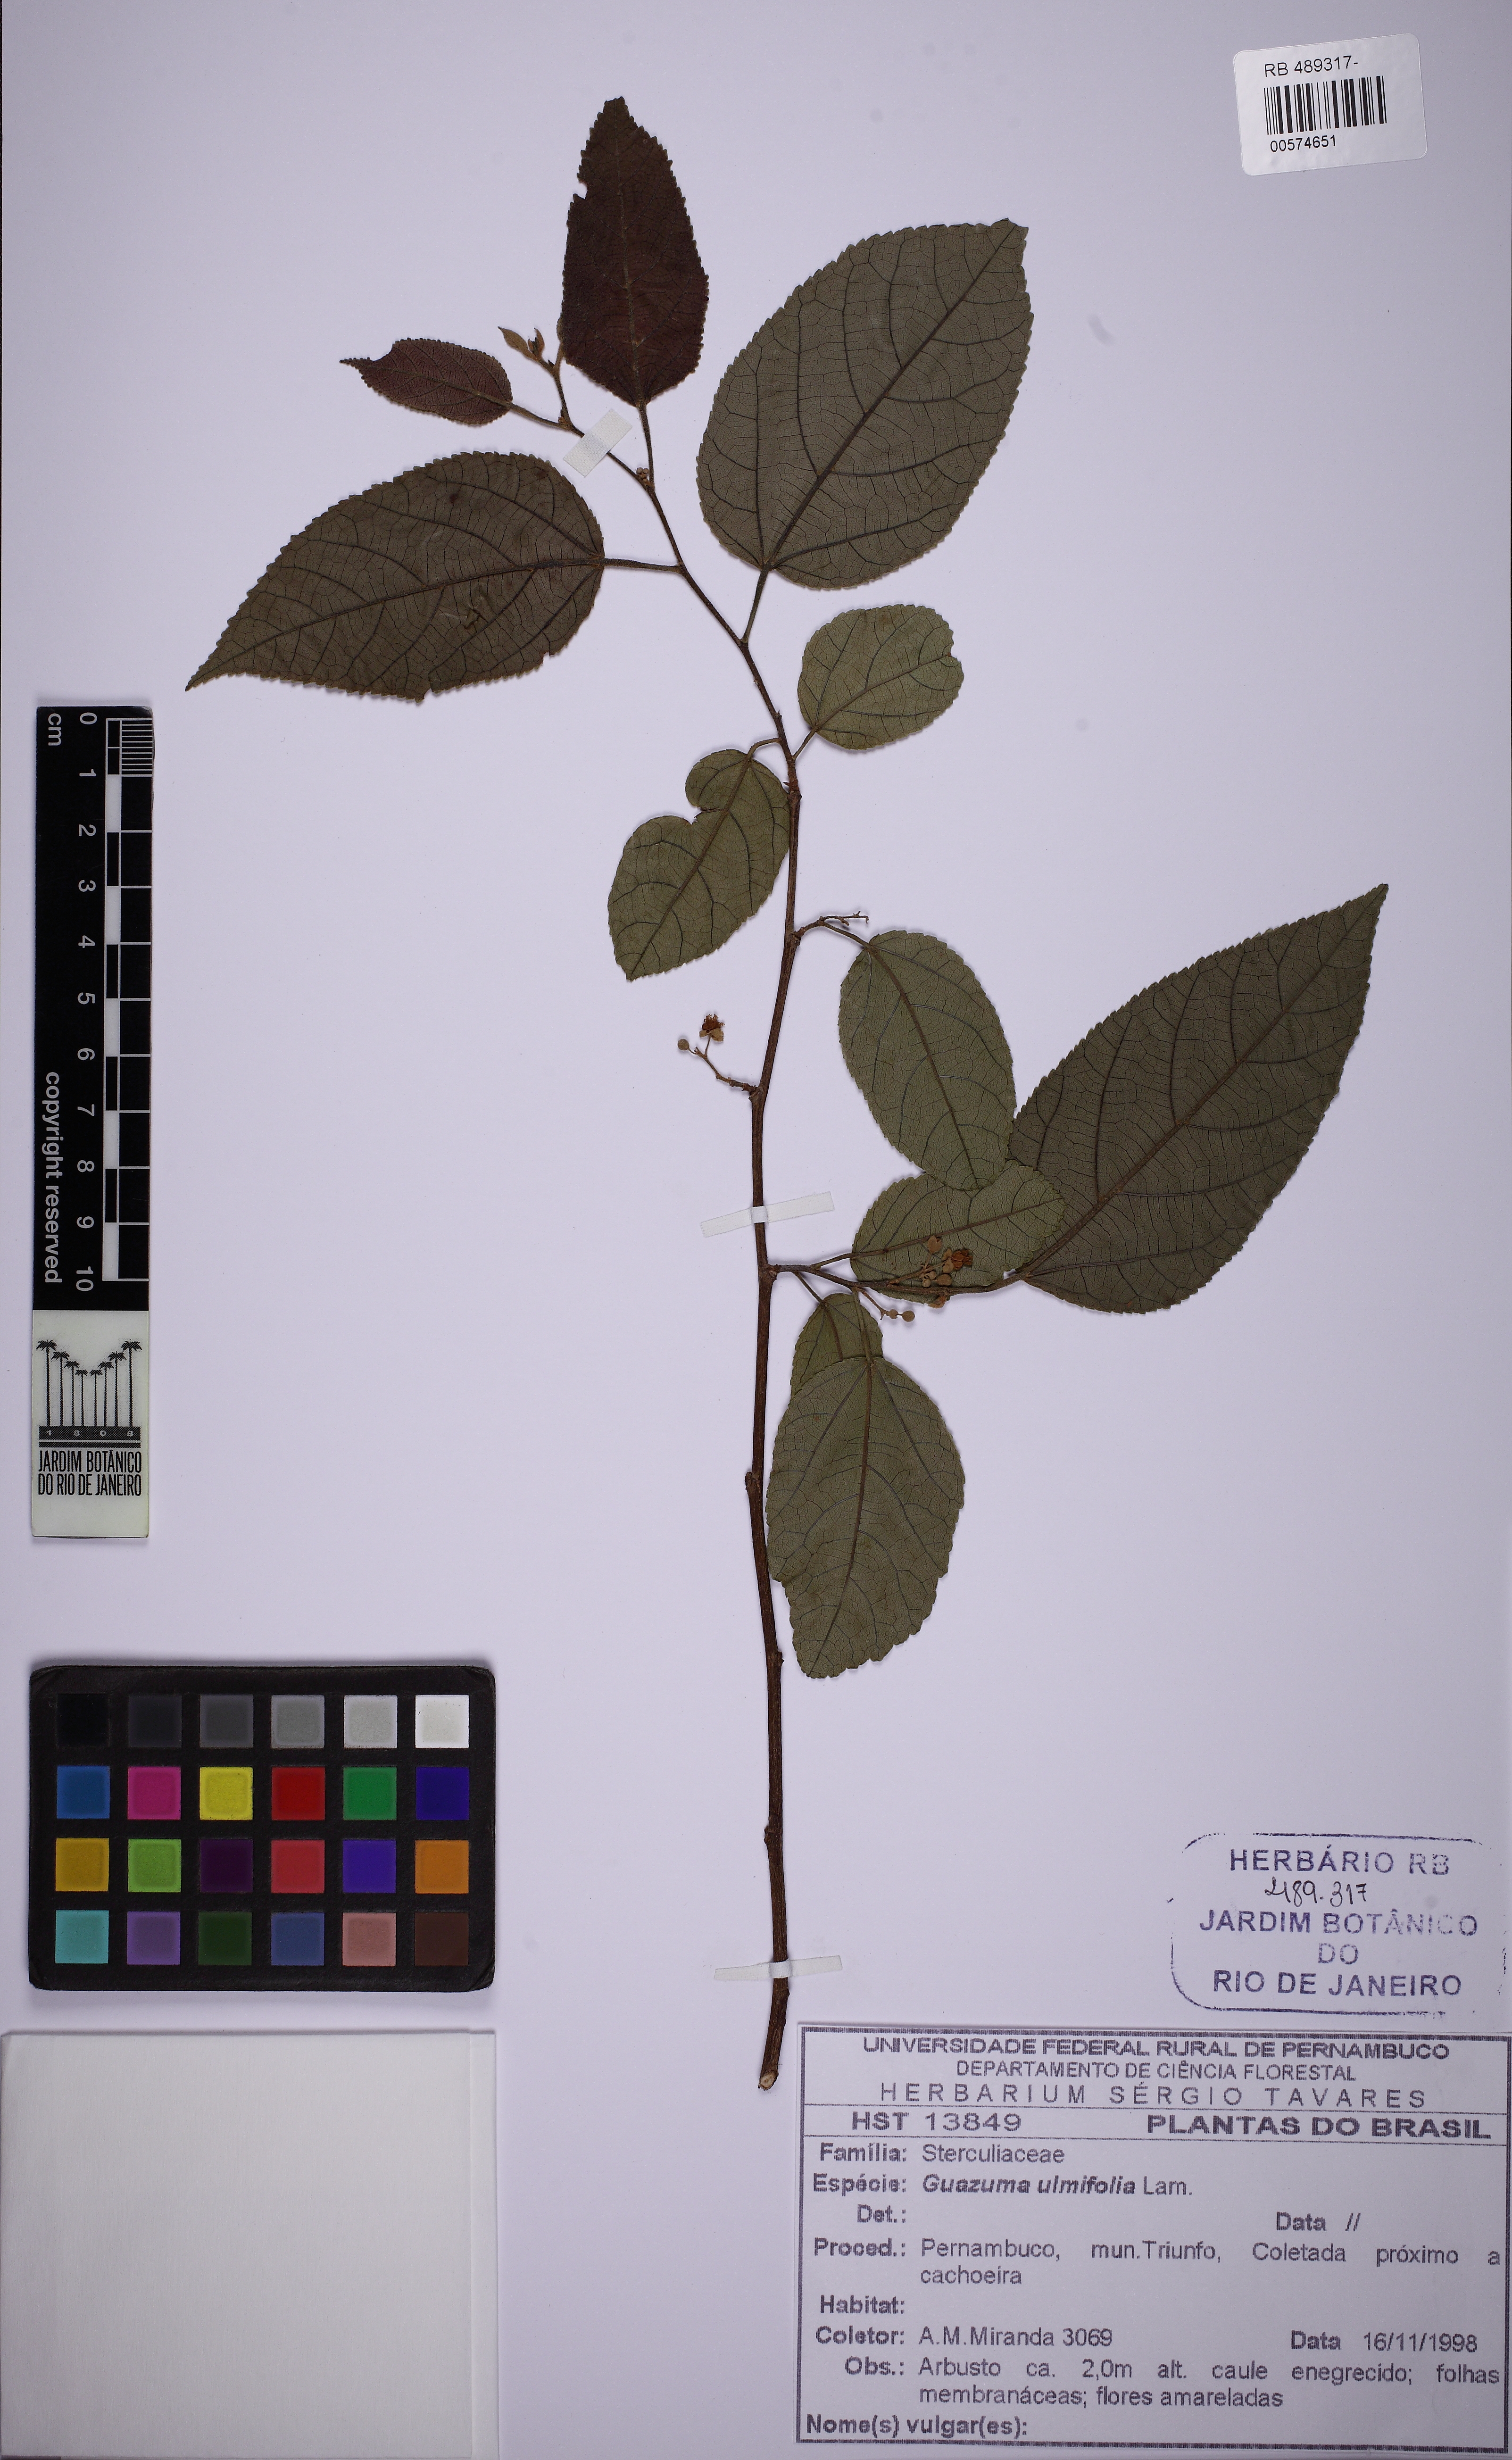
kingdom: Plantae
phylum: Tracheophyta
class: Magnoliopsida
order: Malvales
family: Malvaceae
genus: Guazuma
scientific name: Guazuma ulmifolia
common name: Bastard-cedar
